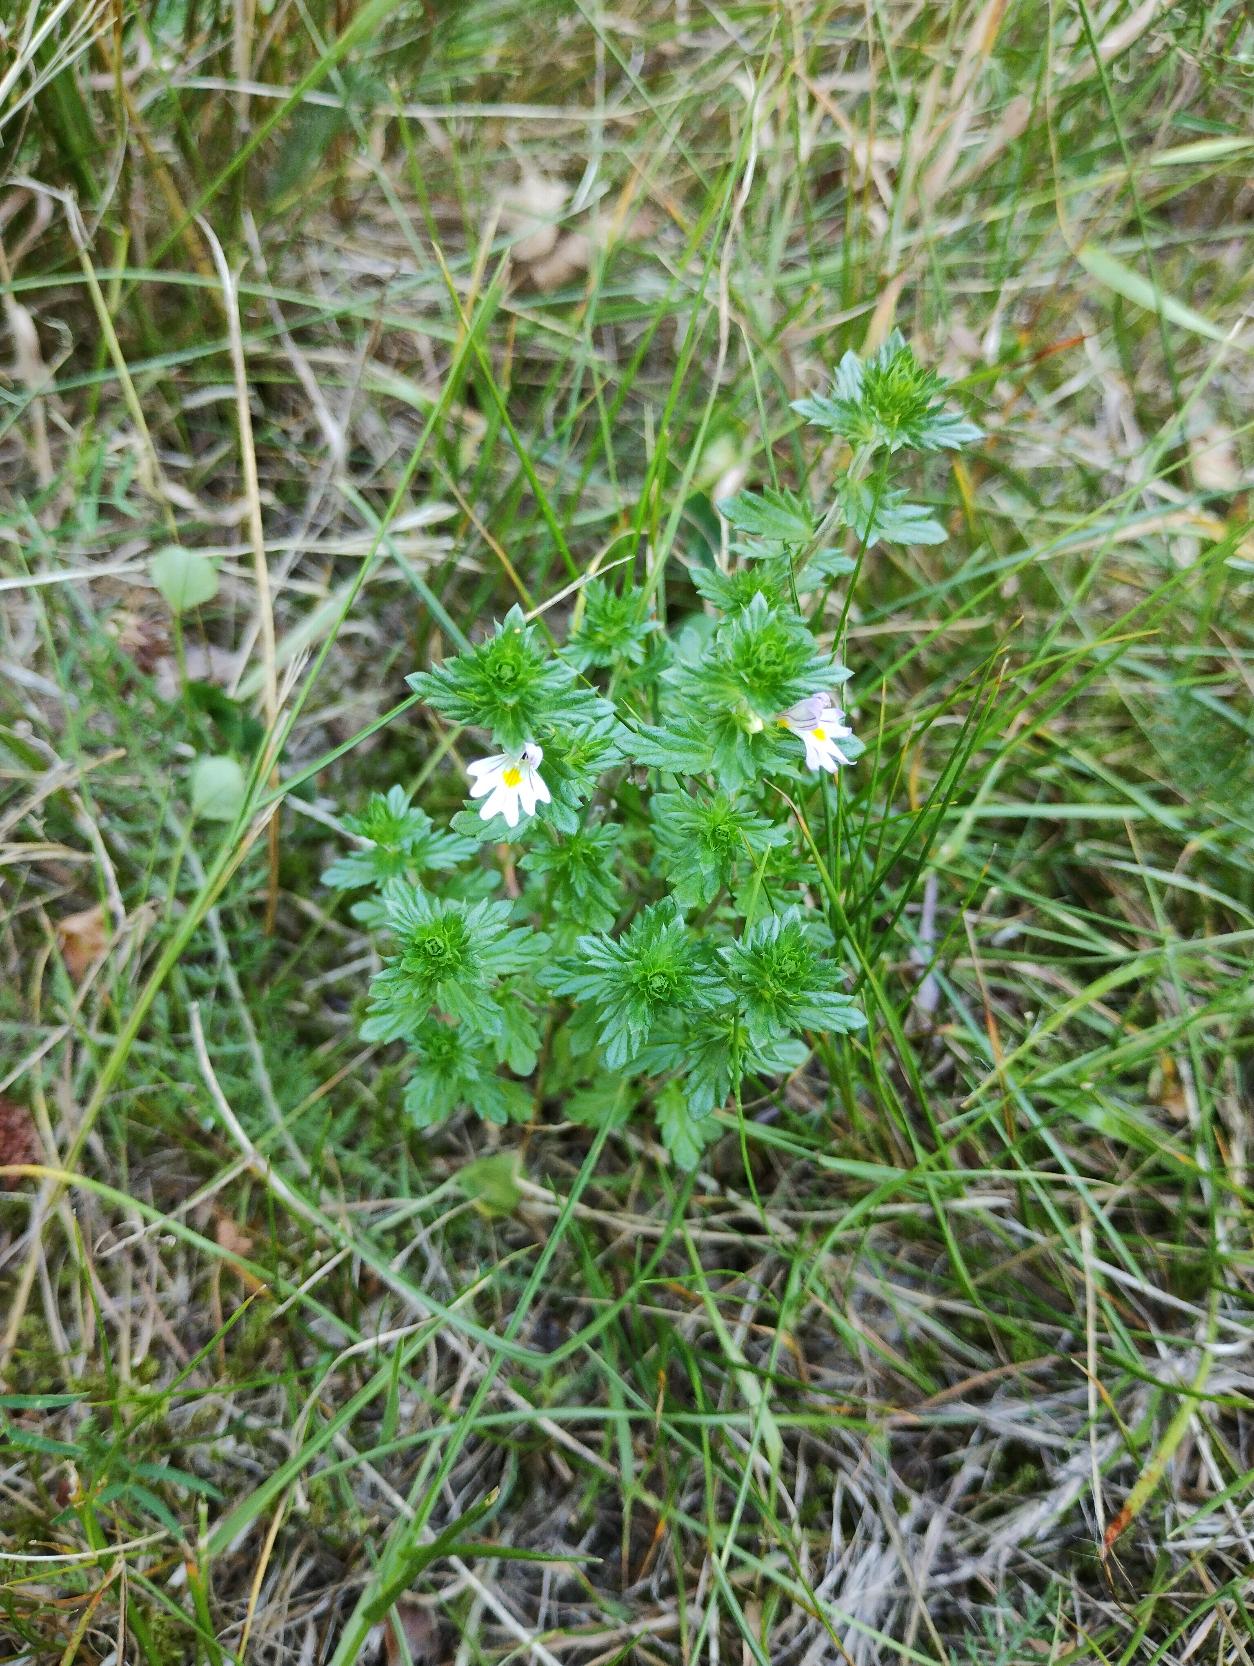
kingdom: Plantae
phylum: Tracheophyta
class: Magnoliopsida
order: Lamiales
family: Orobanchaceae
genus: Euphrasia
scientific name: Euphrasia stricta
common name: Spids øjentrøst
